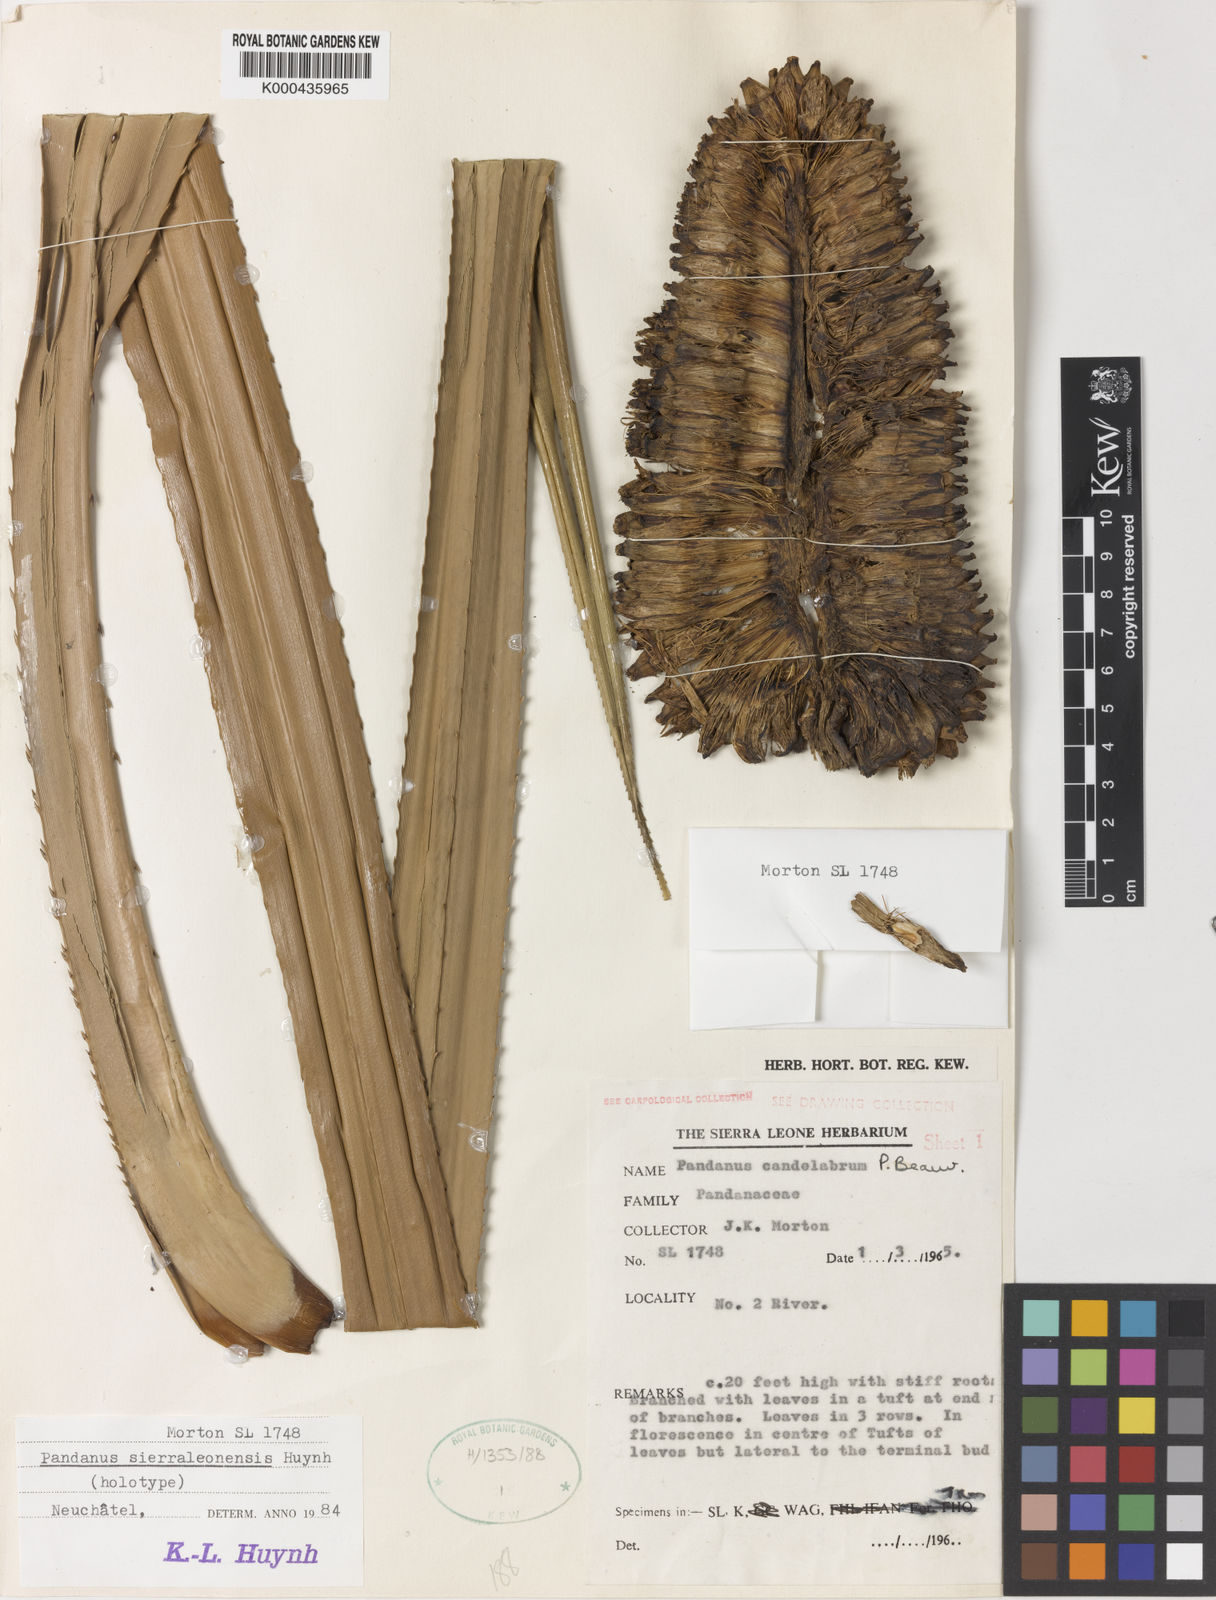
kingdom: Plantae
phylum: Tracheophyta
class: Liliopsida
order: Pandanales
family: Pandanaceae
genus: Pandanus
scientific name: Pandanus candelabrum
